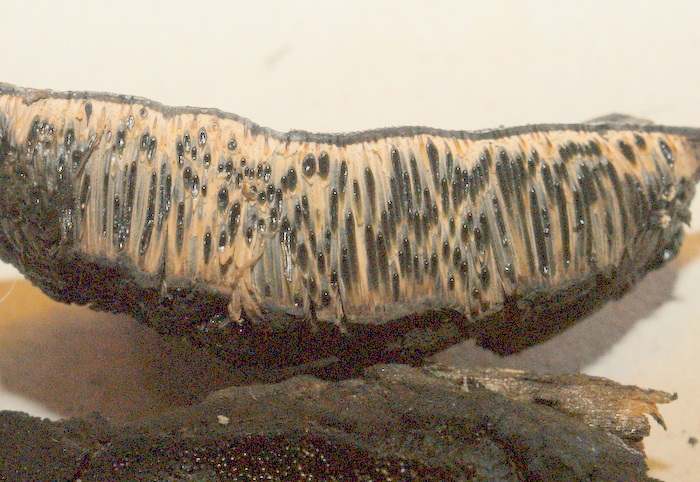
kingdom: Fungi
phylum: Ascomycota
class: Sordariomycetes
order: Boliniales
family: Boliniaceae
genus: Camarops
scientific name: Camarops polysperma
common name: elle-kulsnegl
